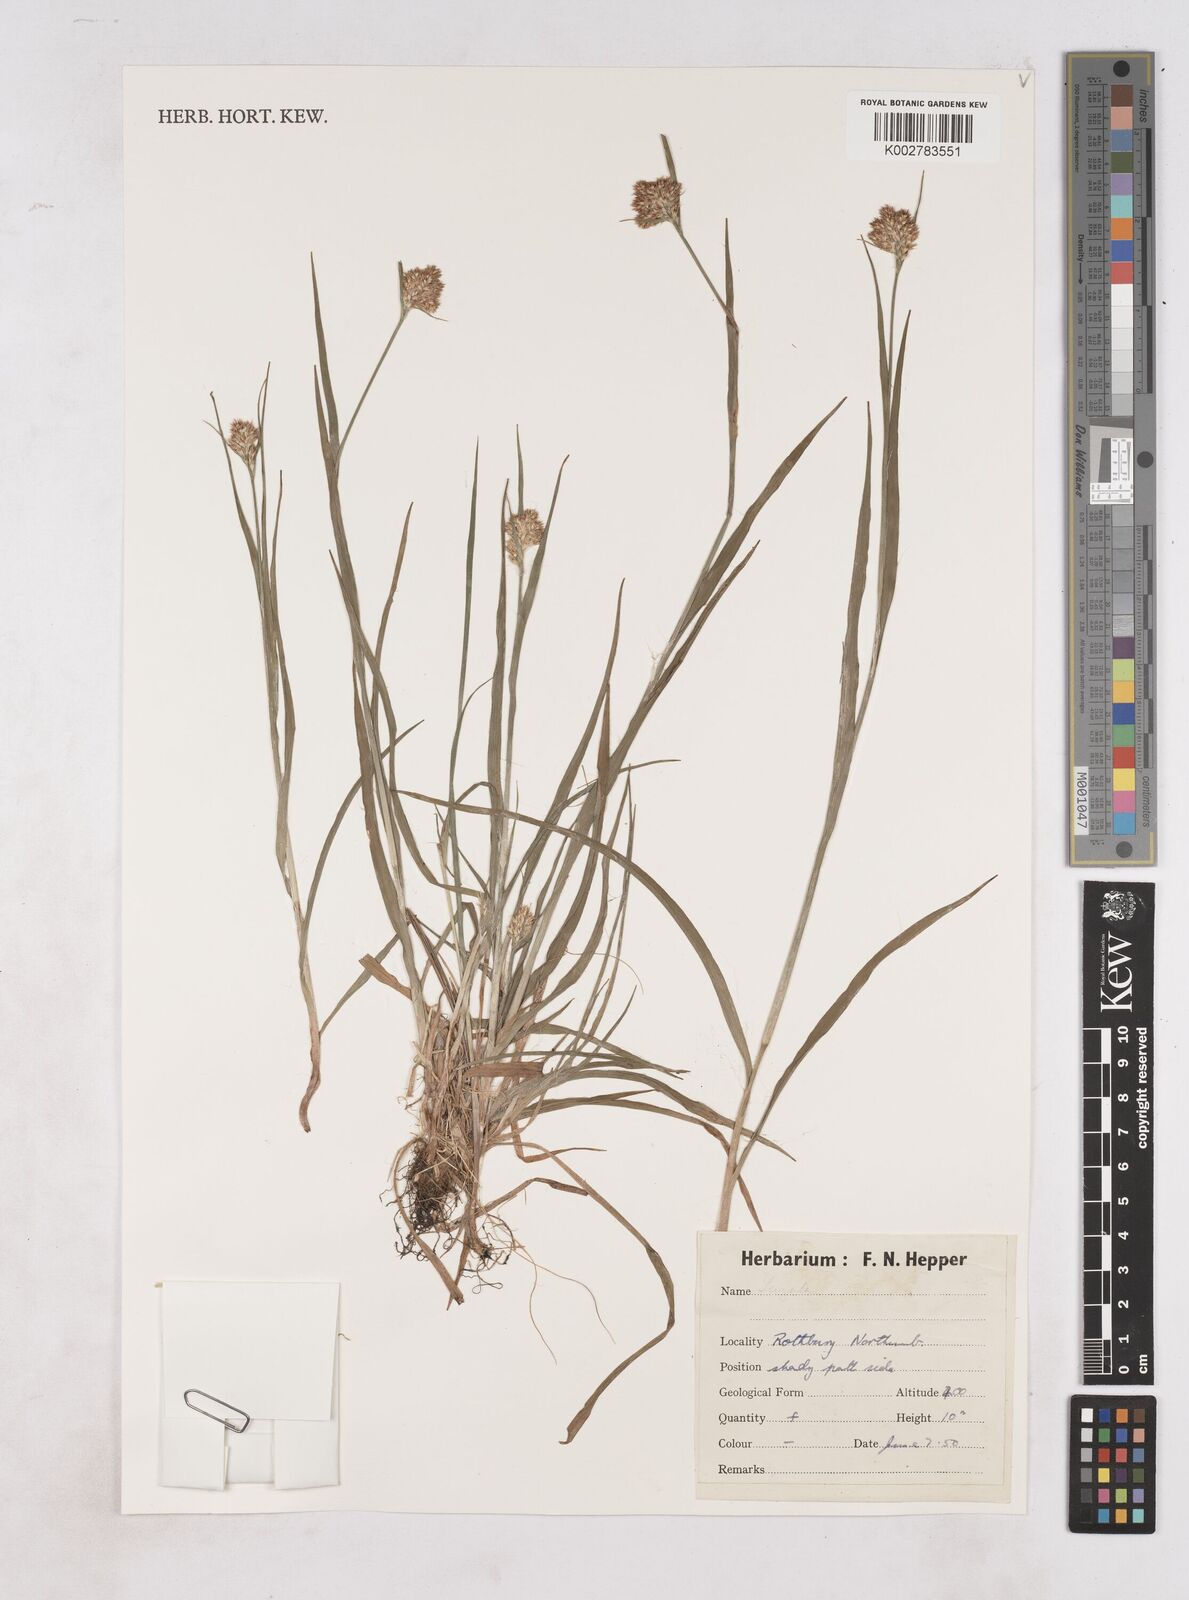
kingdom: Plantae
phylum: Tracheophyta
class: Liliopsida
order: Poales
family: Juncaceae
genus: Luzula
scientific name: Luzula
